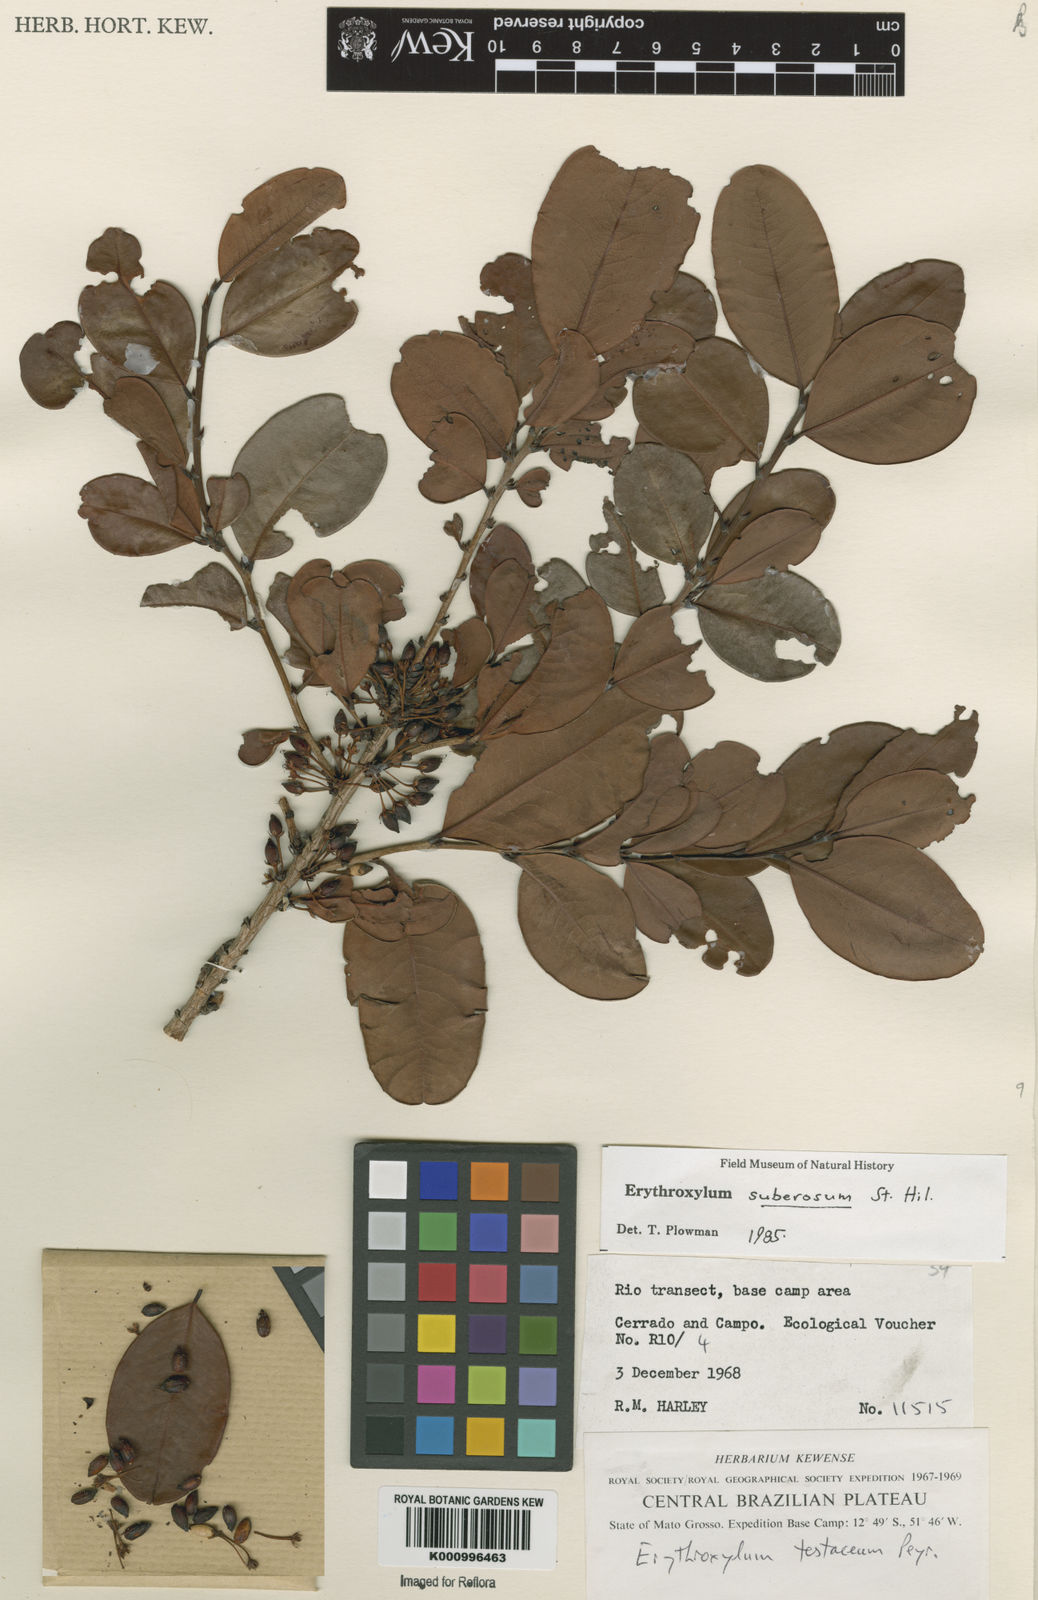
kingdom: Plantae
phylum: Tracheophyta
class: Magnoliopsida
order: Malpighiales
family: Erythroxylaceae
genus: Erythroxylum
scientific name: Erythroxylum suberosum
